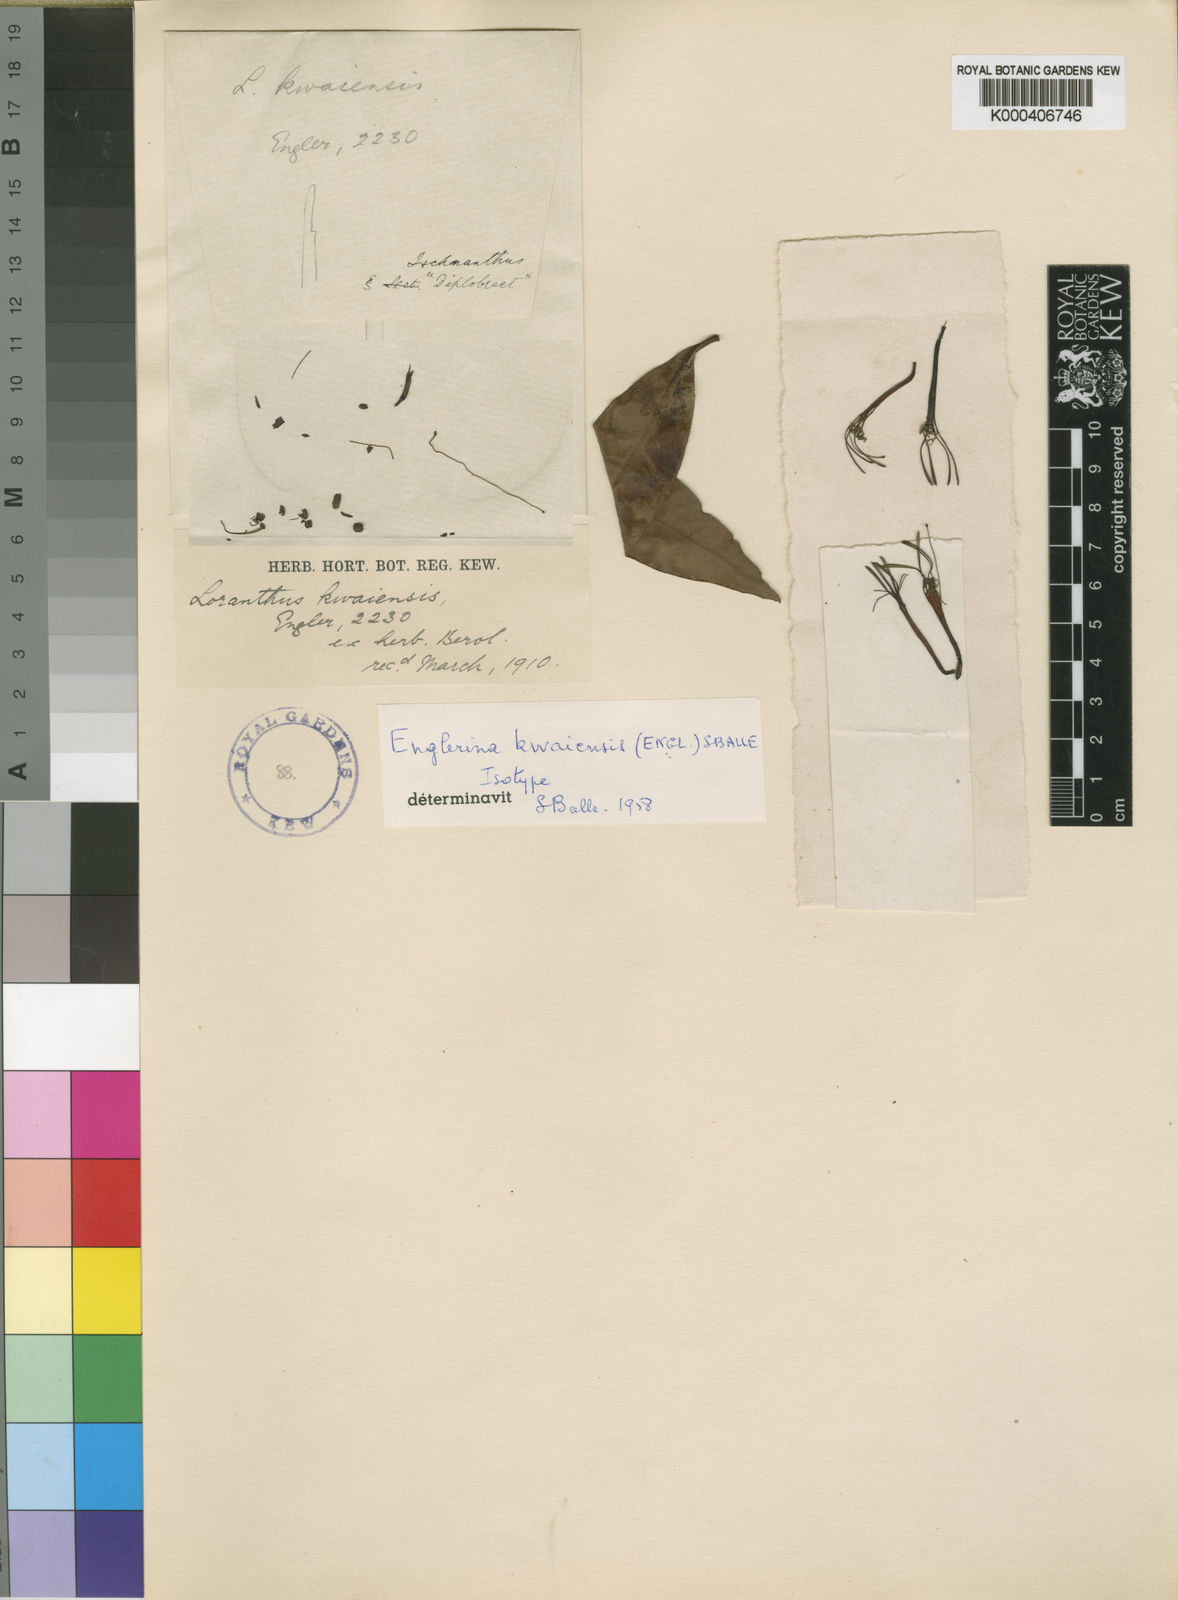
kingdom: Plantae
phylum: Tracheophyta
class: Magnoliopsida
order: Santalales
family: Loranthaceae
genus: Englerina
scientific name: Englerina
